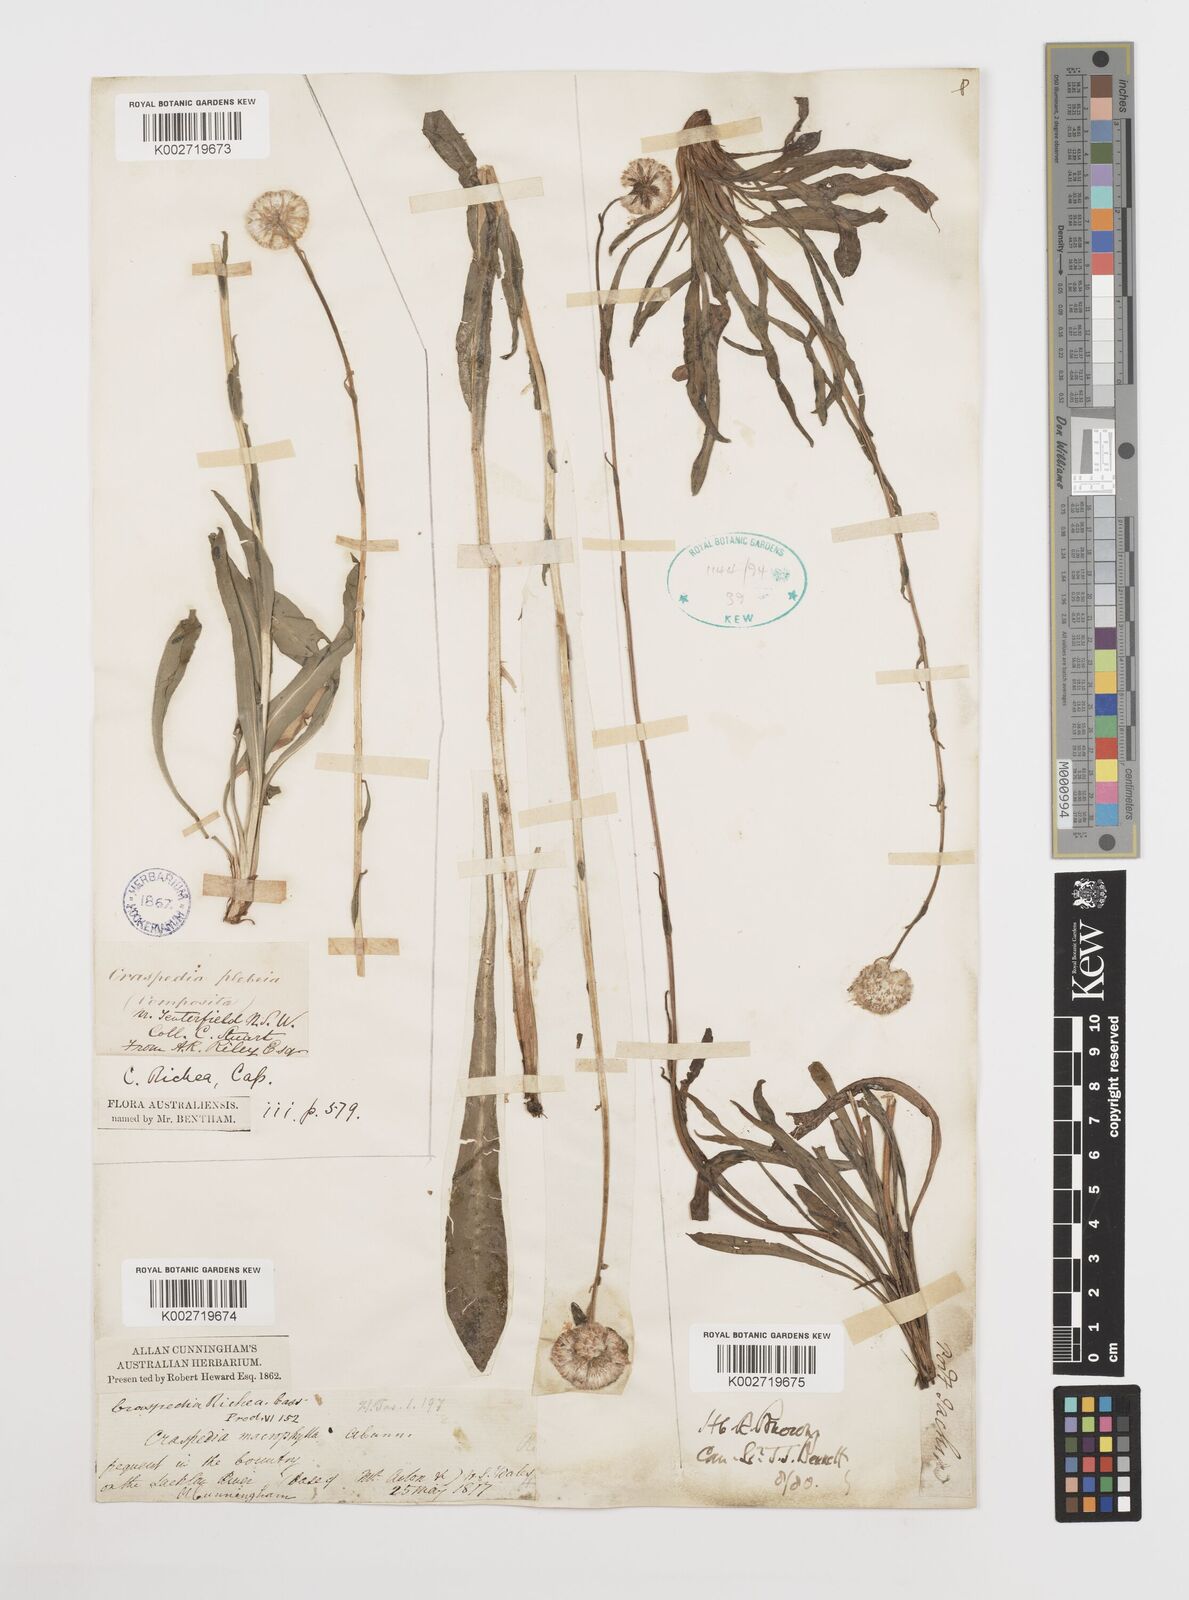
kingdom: Plantae
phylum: Tracheophyta
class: Magnoliopsida
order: Asterales
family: Asteraceae
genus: Craspedia
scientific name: Craspedia glauca
